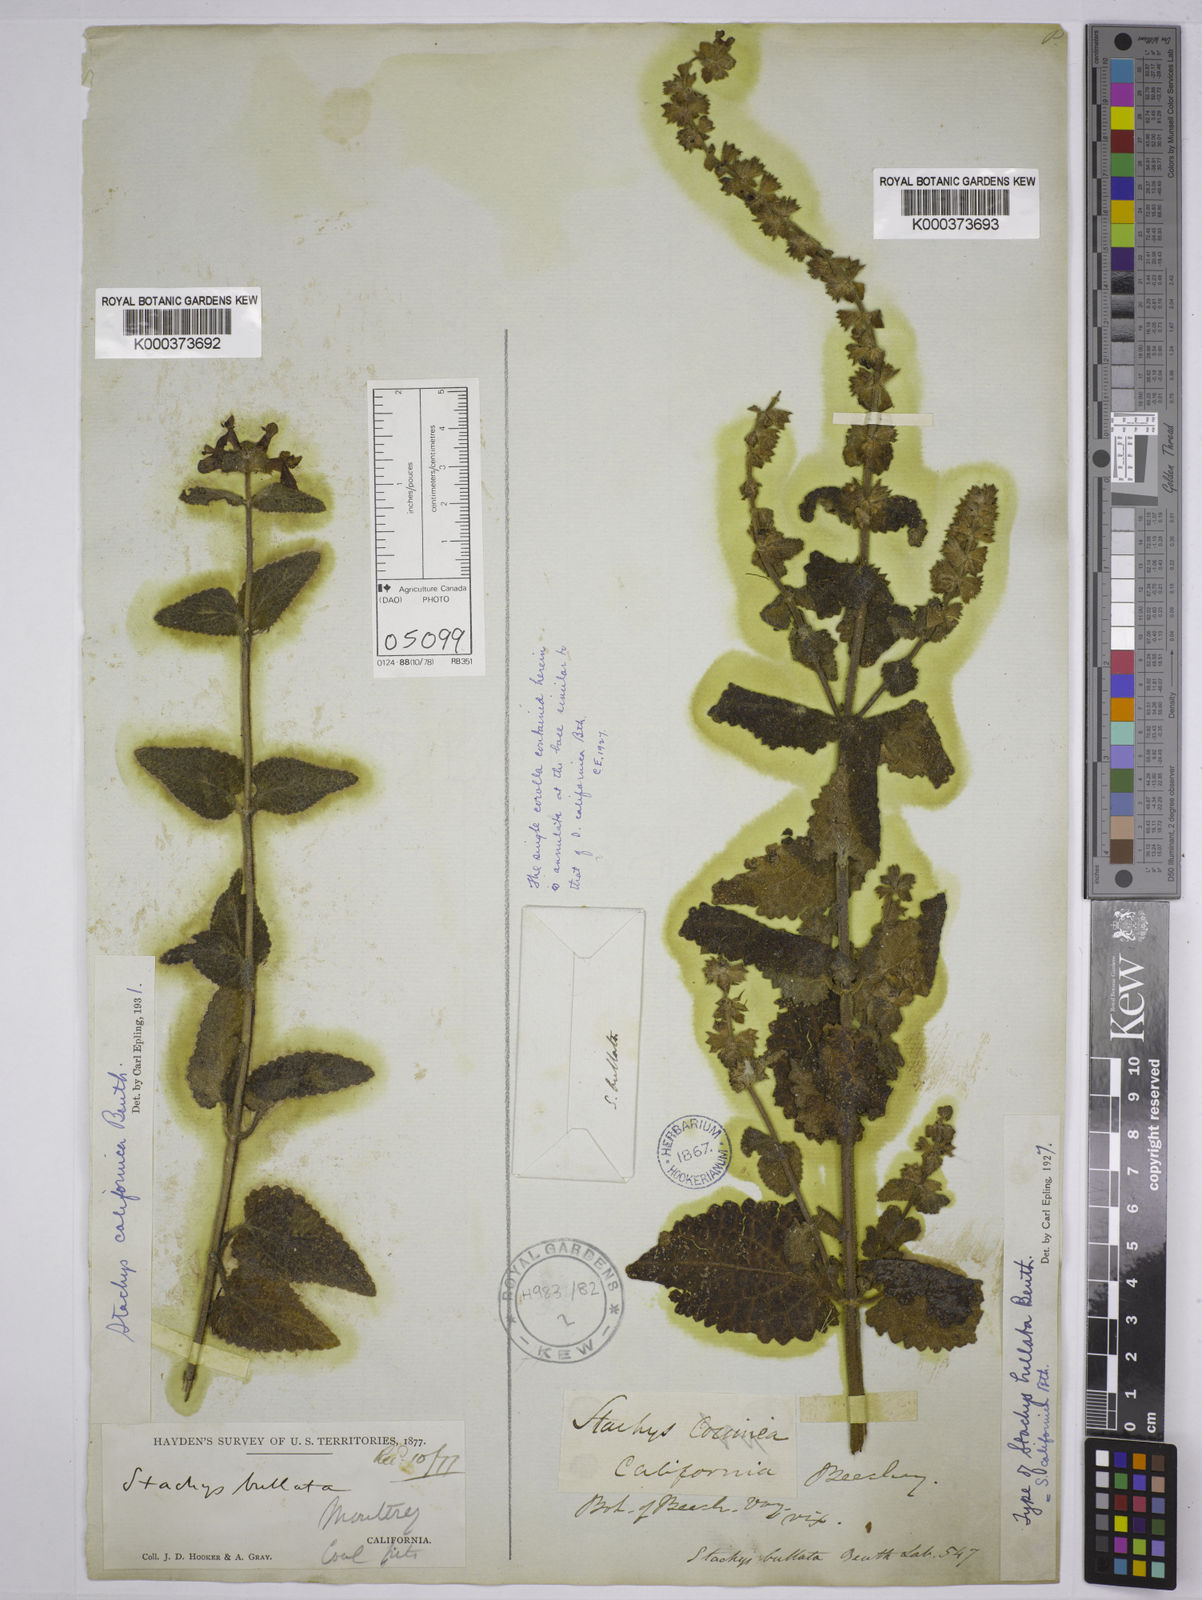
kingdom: Plantae
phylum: Tracheophyta
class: Magnoliopsida
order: Lamiales
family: Lamiaceae
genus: Stachys
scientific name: Stachys bullata
